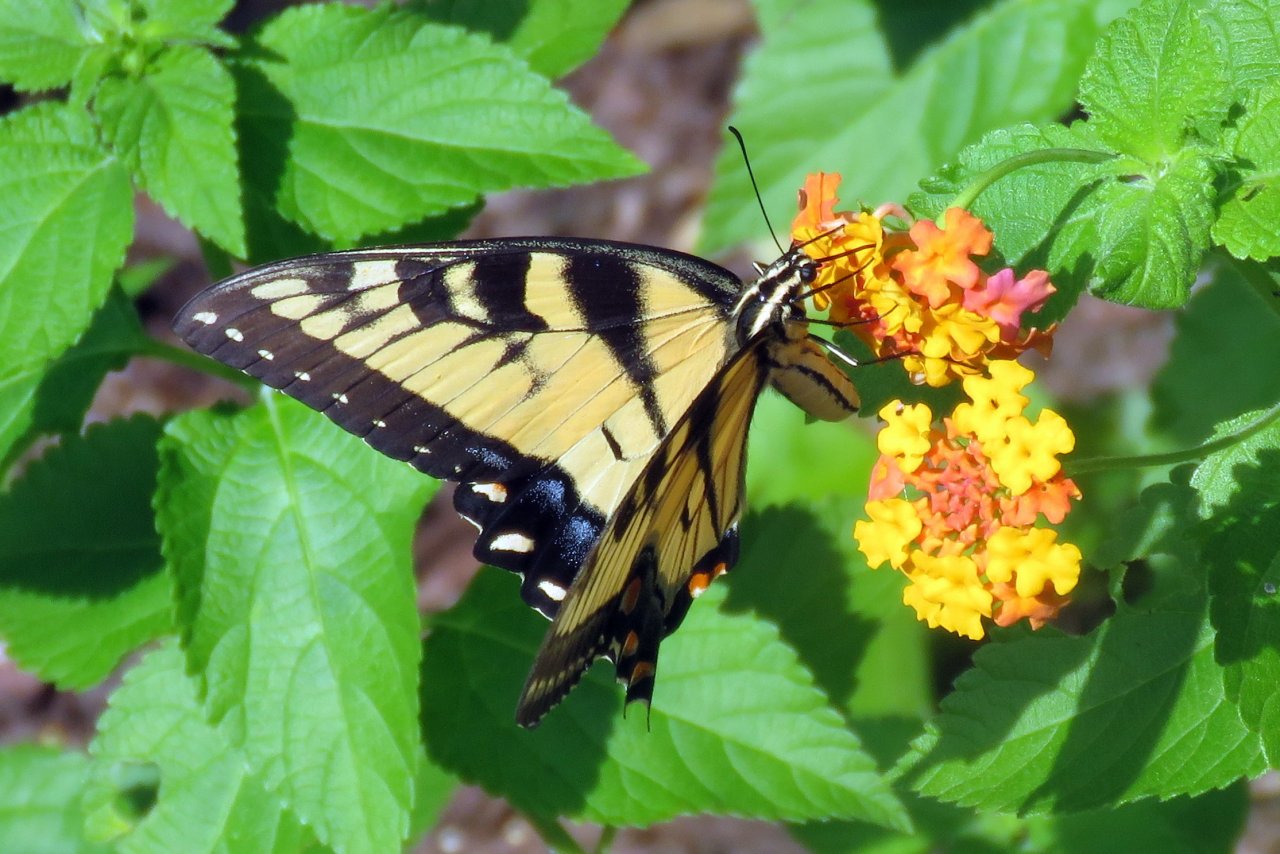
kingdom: Animalia
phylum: Arthropoda
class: Insecta
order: Lepidoptera
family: Papilionidae
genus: Pterourus
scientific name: Pterourus glaucus
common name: Eastern Tiger Swallowtail
